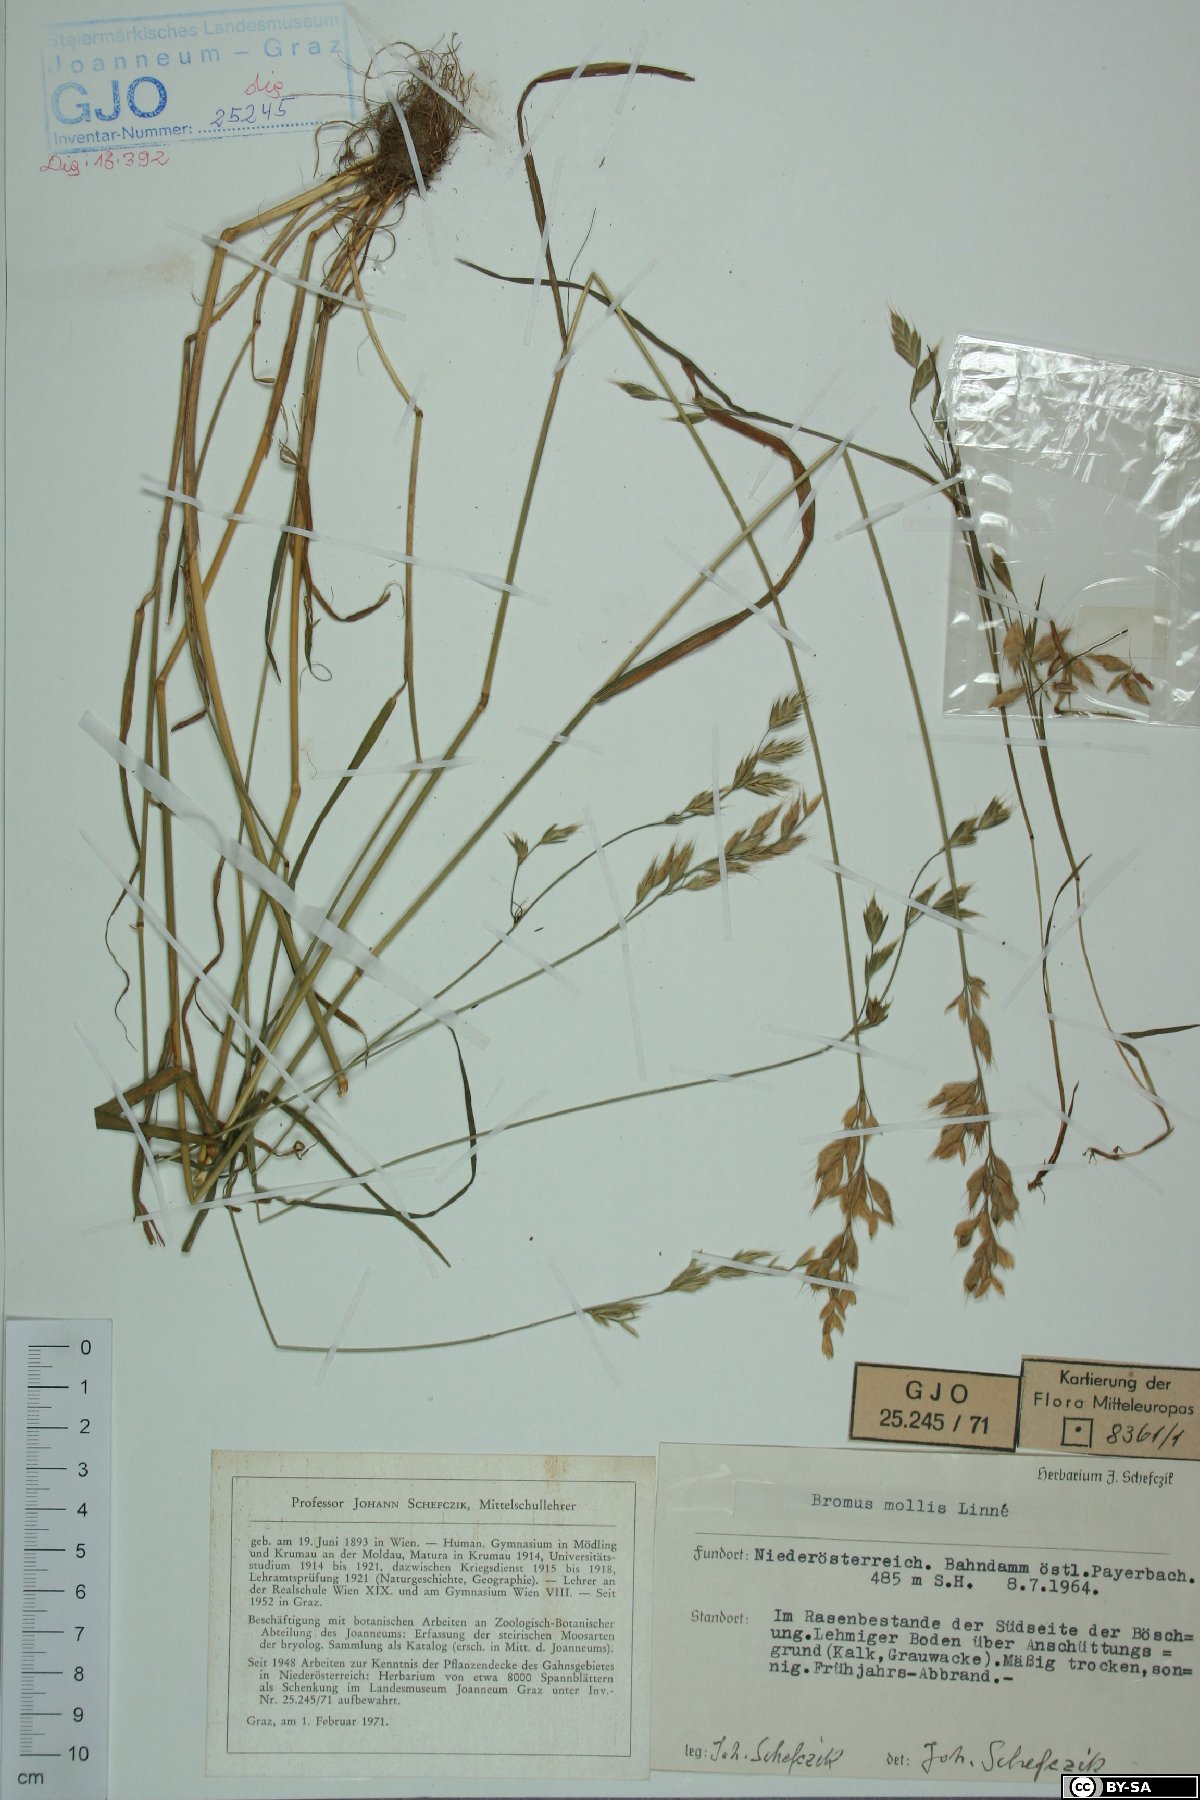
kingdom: Plantae
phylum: Tracheophyta
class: Liliopsida
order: Poales
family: Poaceae
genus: Bromus
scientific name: Bromus hordeaceus
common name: Soft brome
